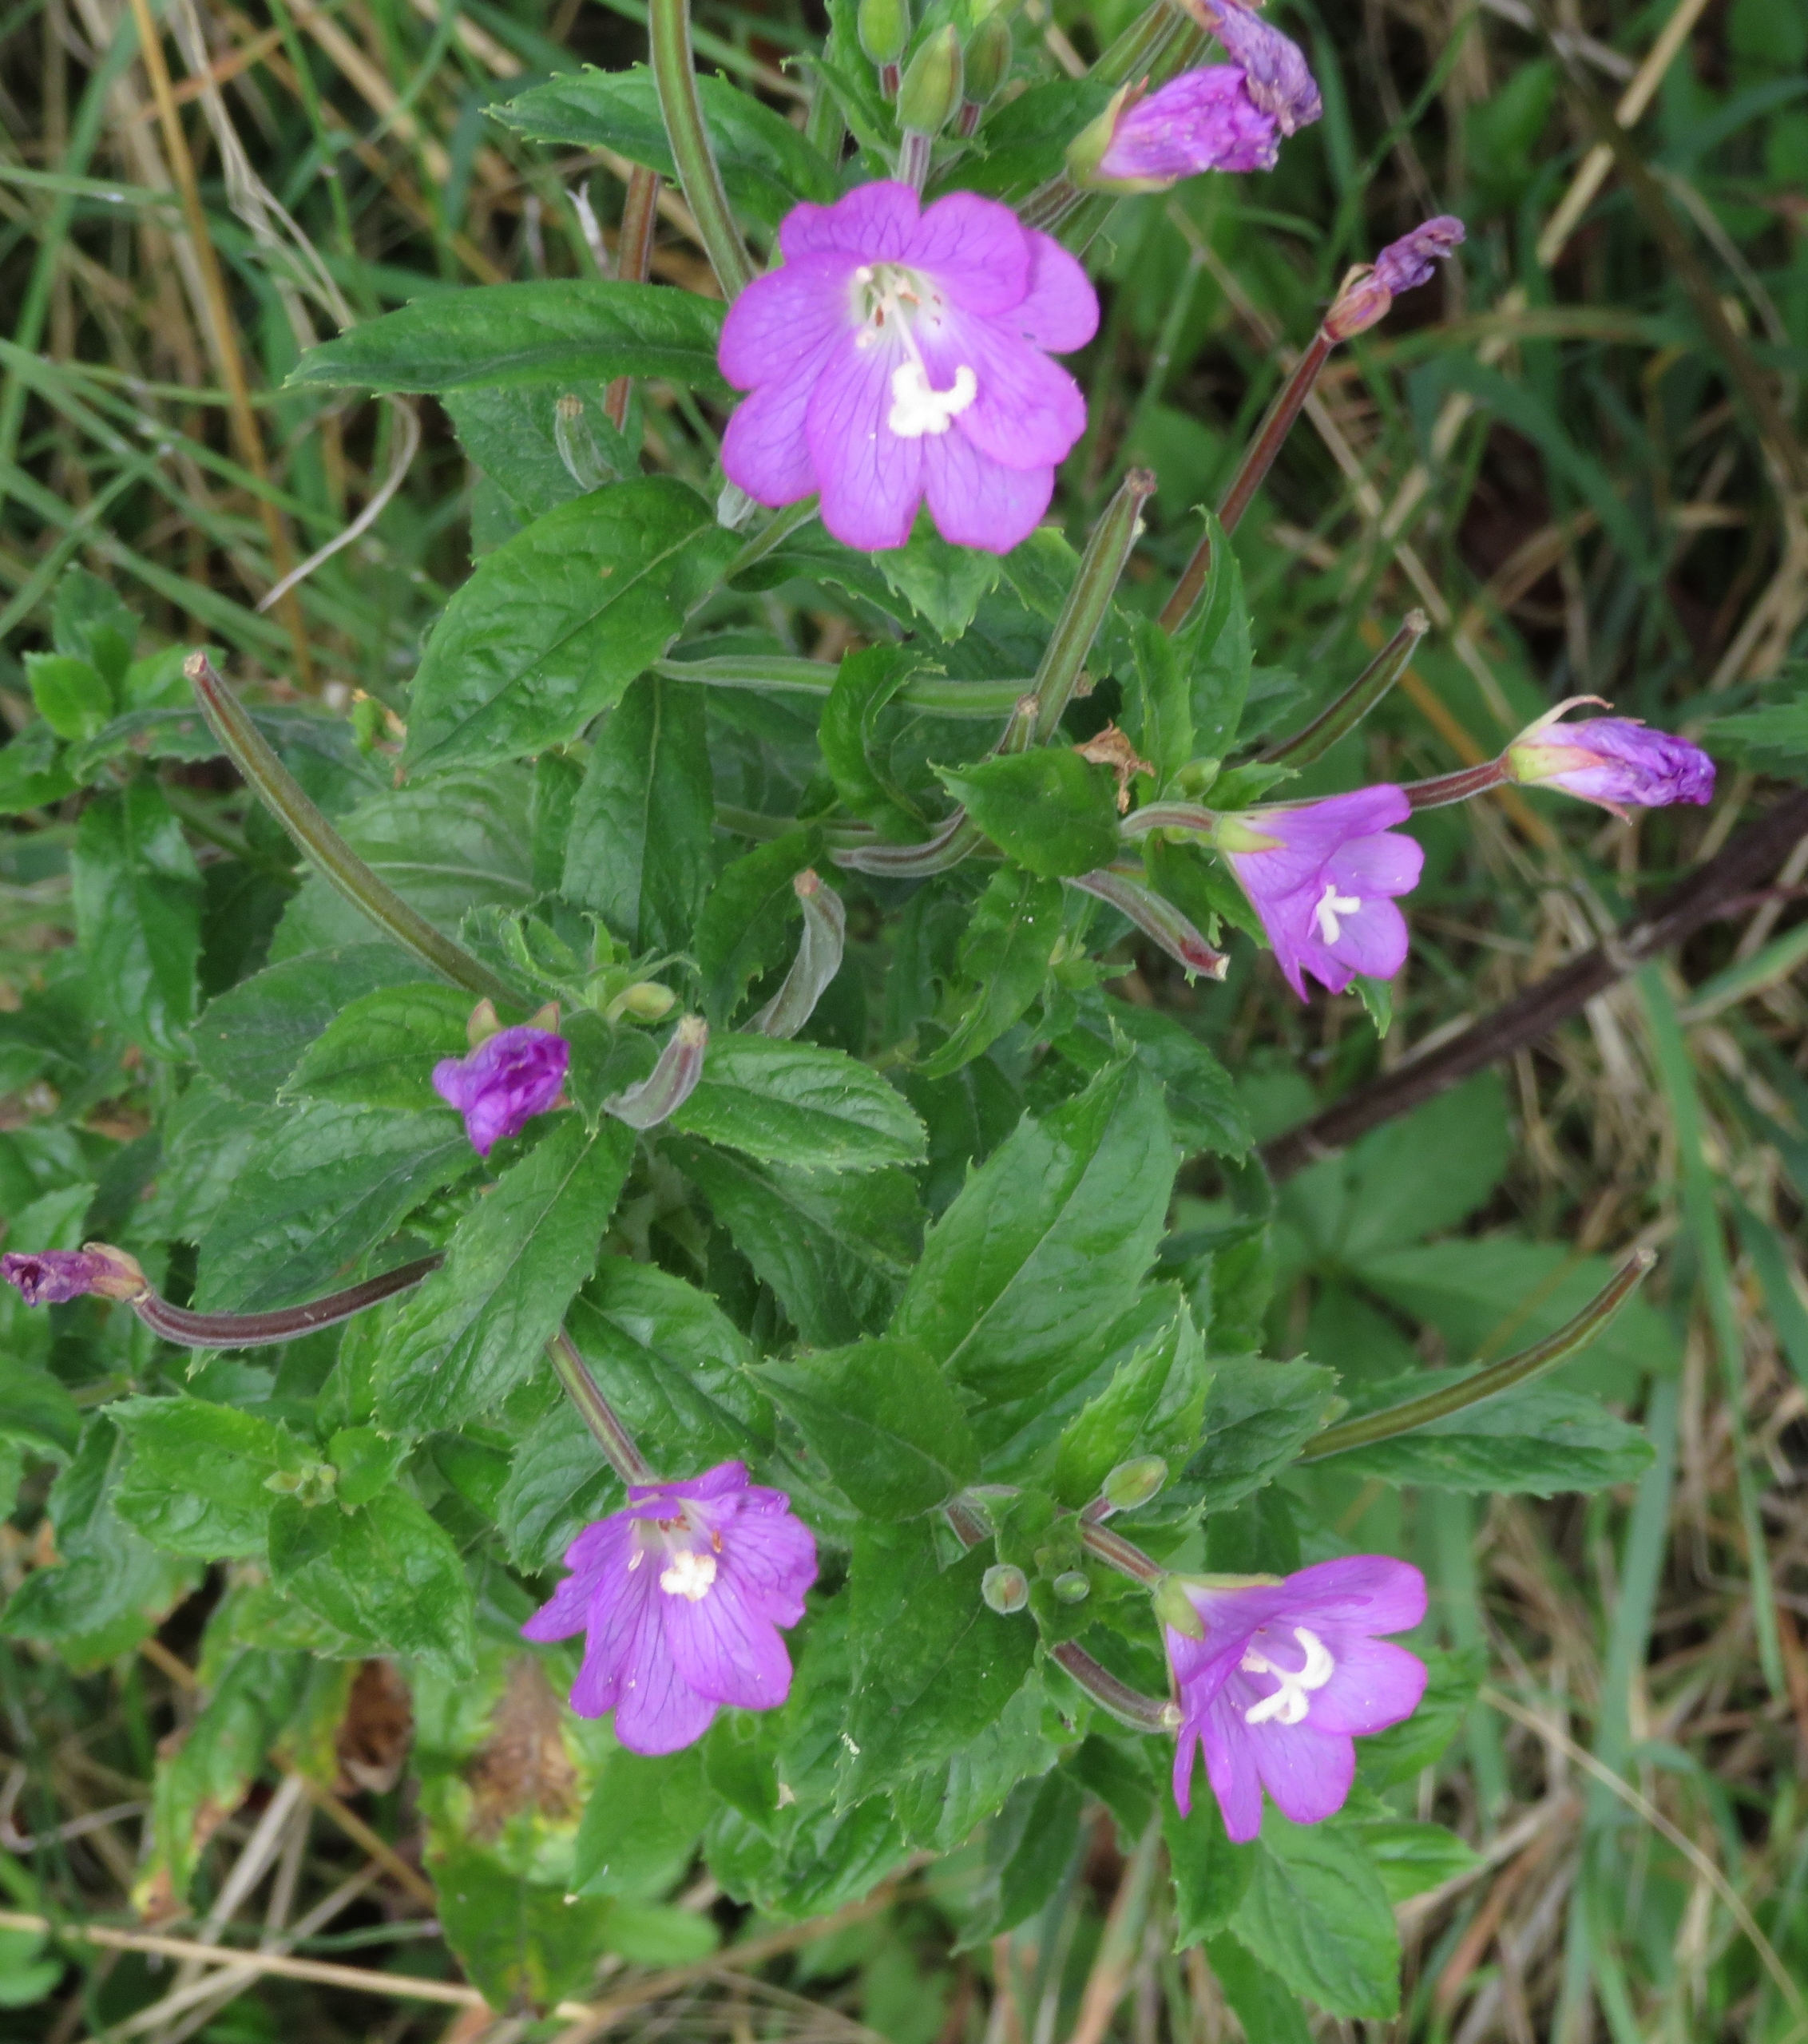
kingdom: Plantae
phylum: Tracheophyta
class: Magnoliopsida
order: Myrtales
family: Onagraceae
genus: Epilobium
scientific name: Epilobium hirsutum
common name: Lådden dueurt
